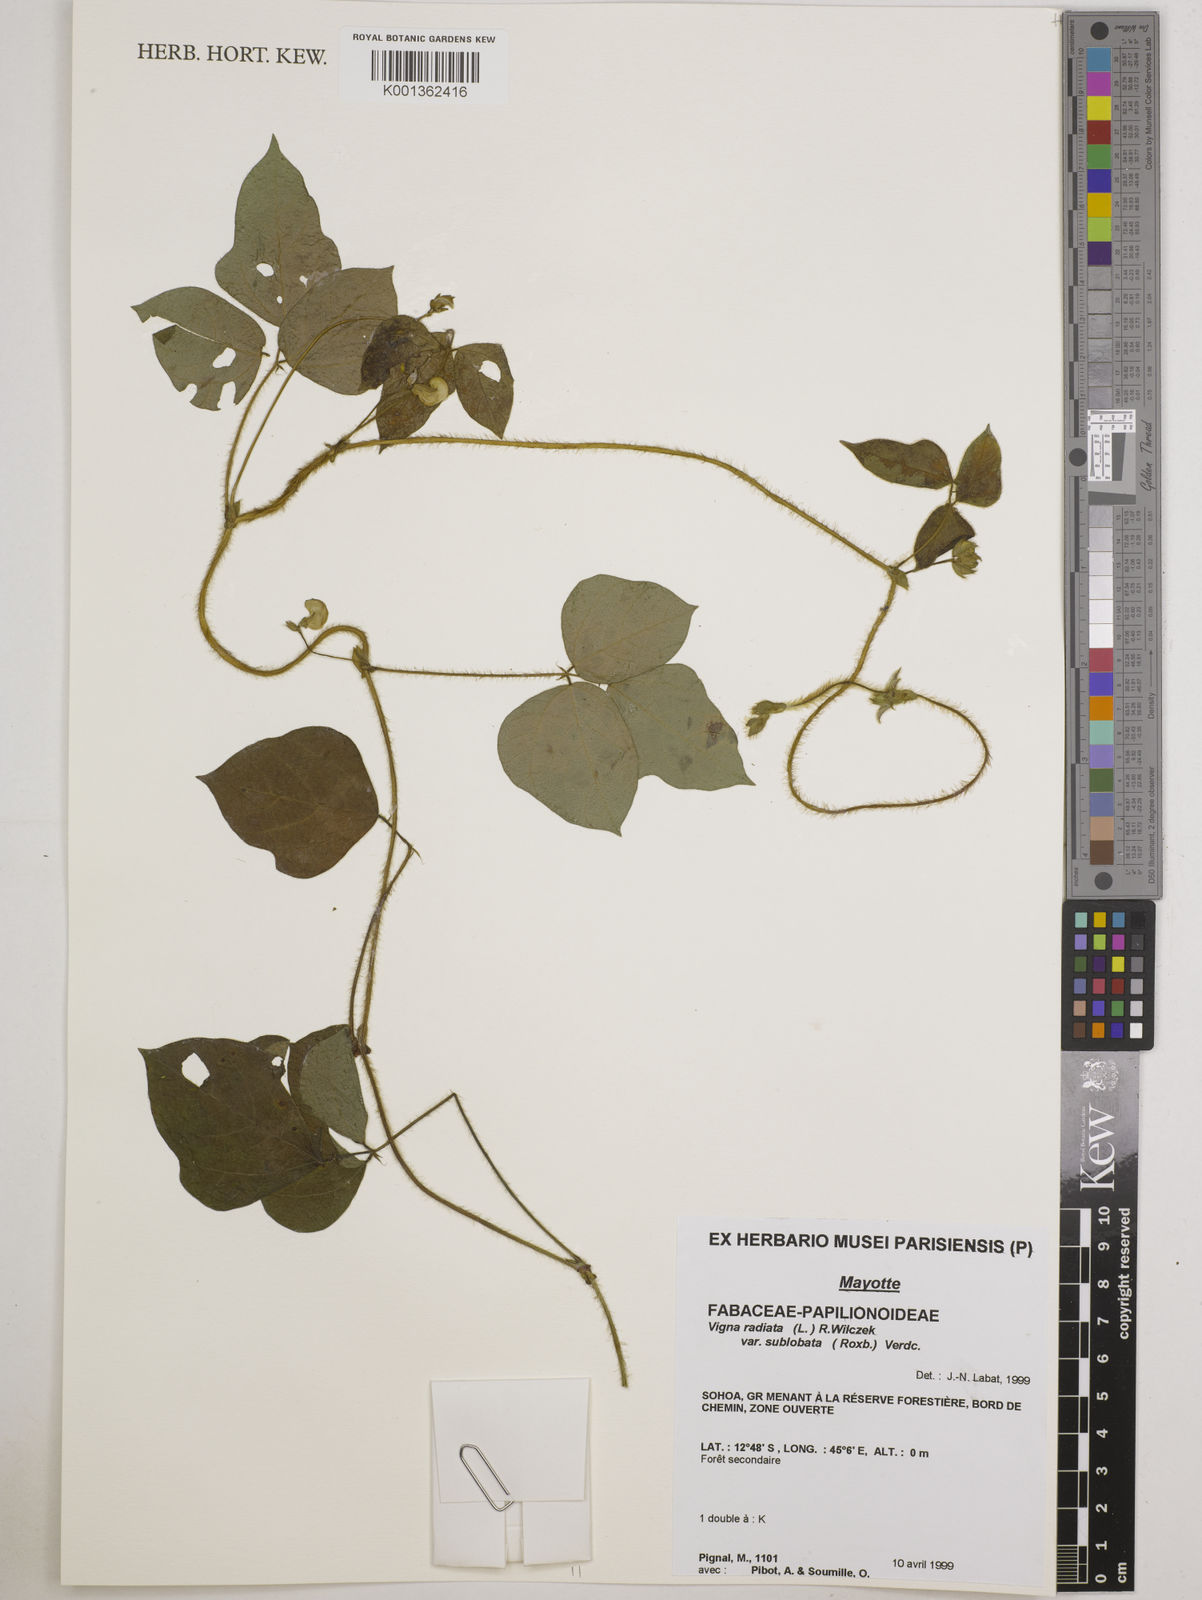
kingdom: Plantae
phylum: Tracheophyta
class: Magnoliopsida
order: Fabales
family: Fabaceae
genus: Vigna
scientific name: Vigna radiata
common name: Mung-bean
